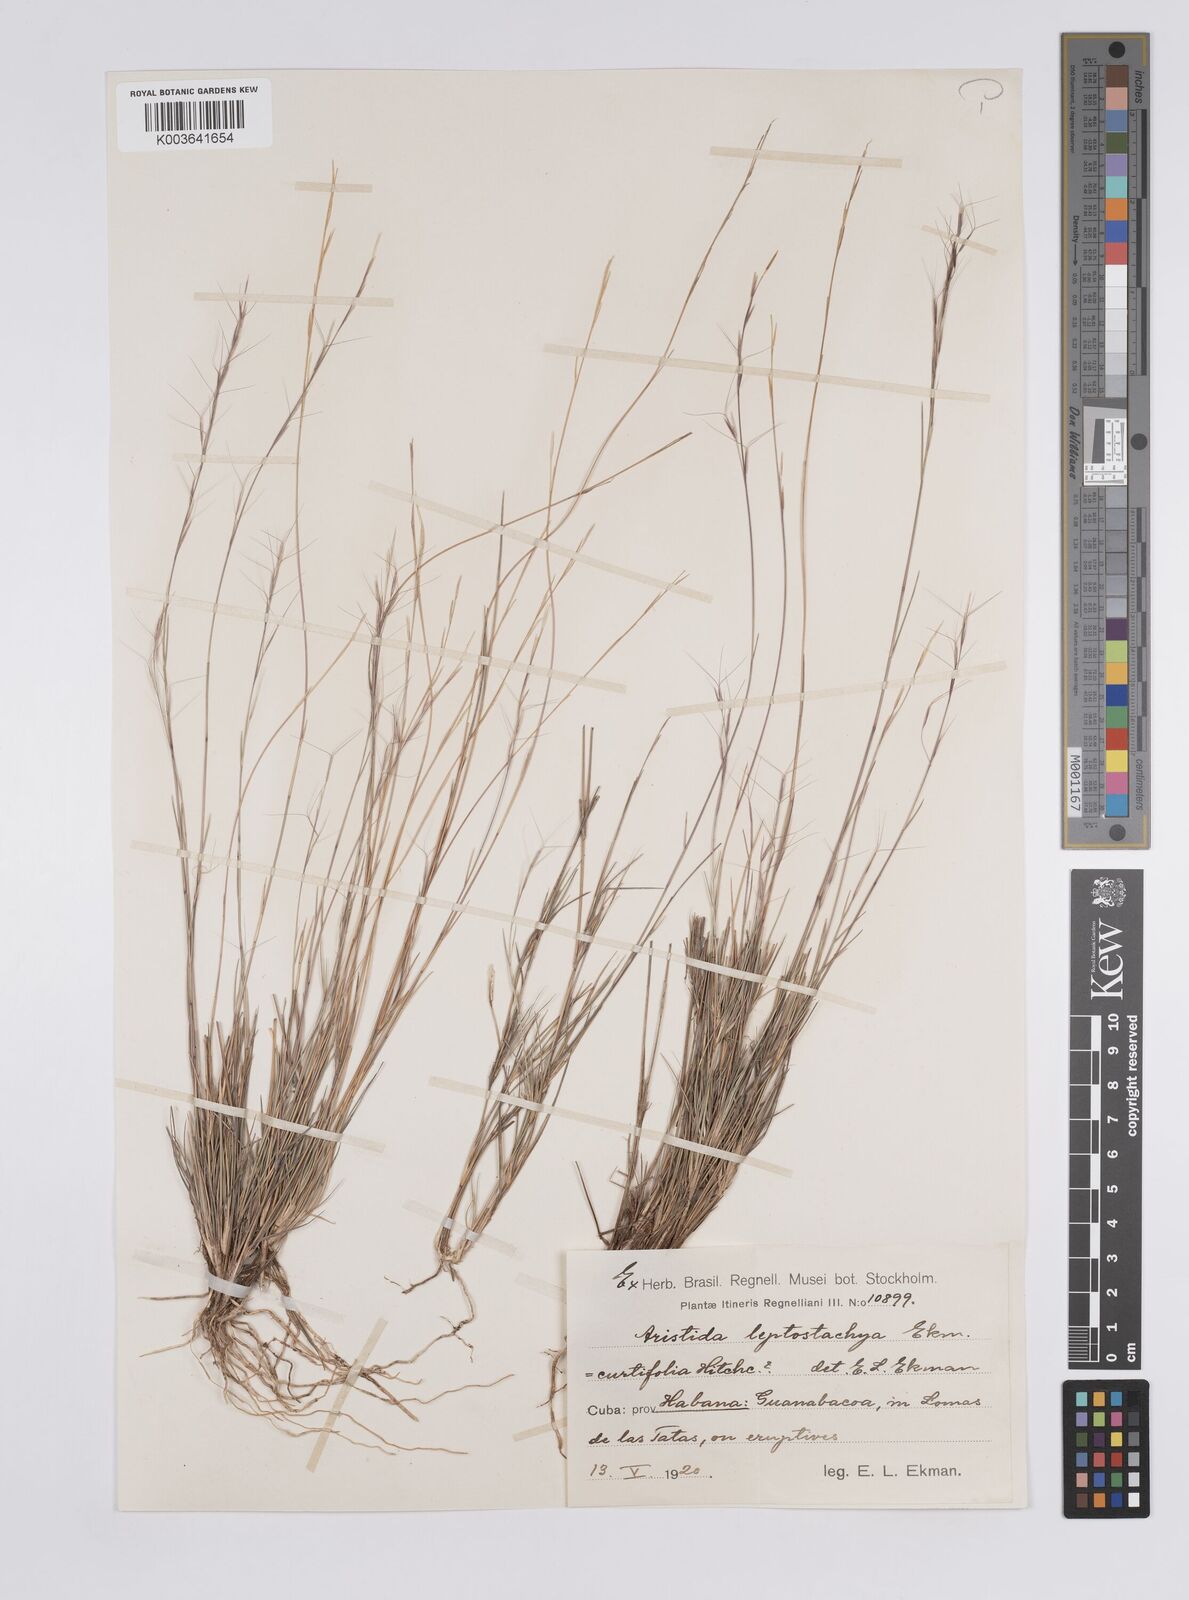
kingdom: Plantae
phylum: Tracheophyta
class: Liliopsida
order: Poales
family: Poaceae
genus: Aristida
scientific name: Aristida curtifolia
